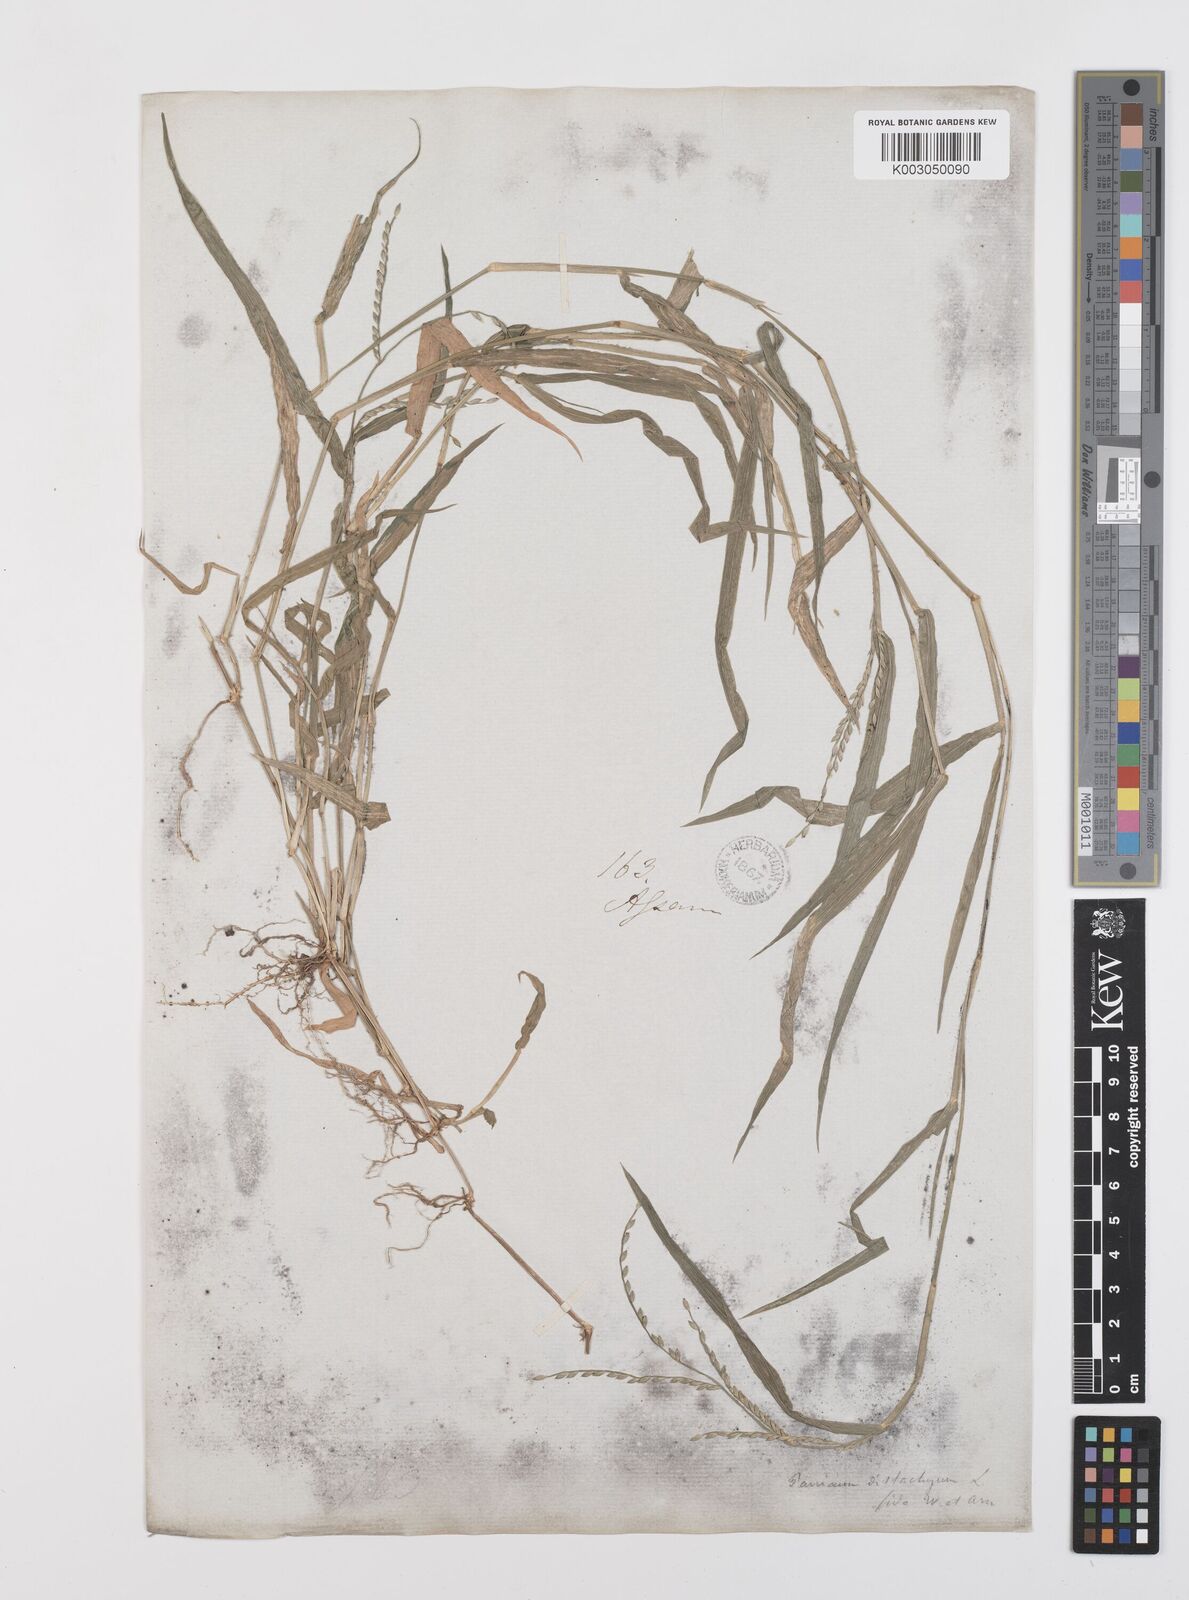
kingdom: Plantae
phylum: Tracheophyta
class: Liliopsida
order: Poales
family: Poaceae
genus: Urochloa
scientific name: Urochloa subquadripara
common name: Armgrass millet
